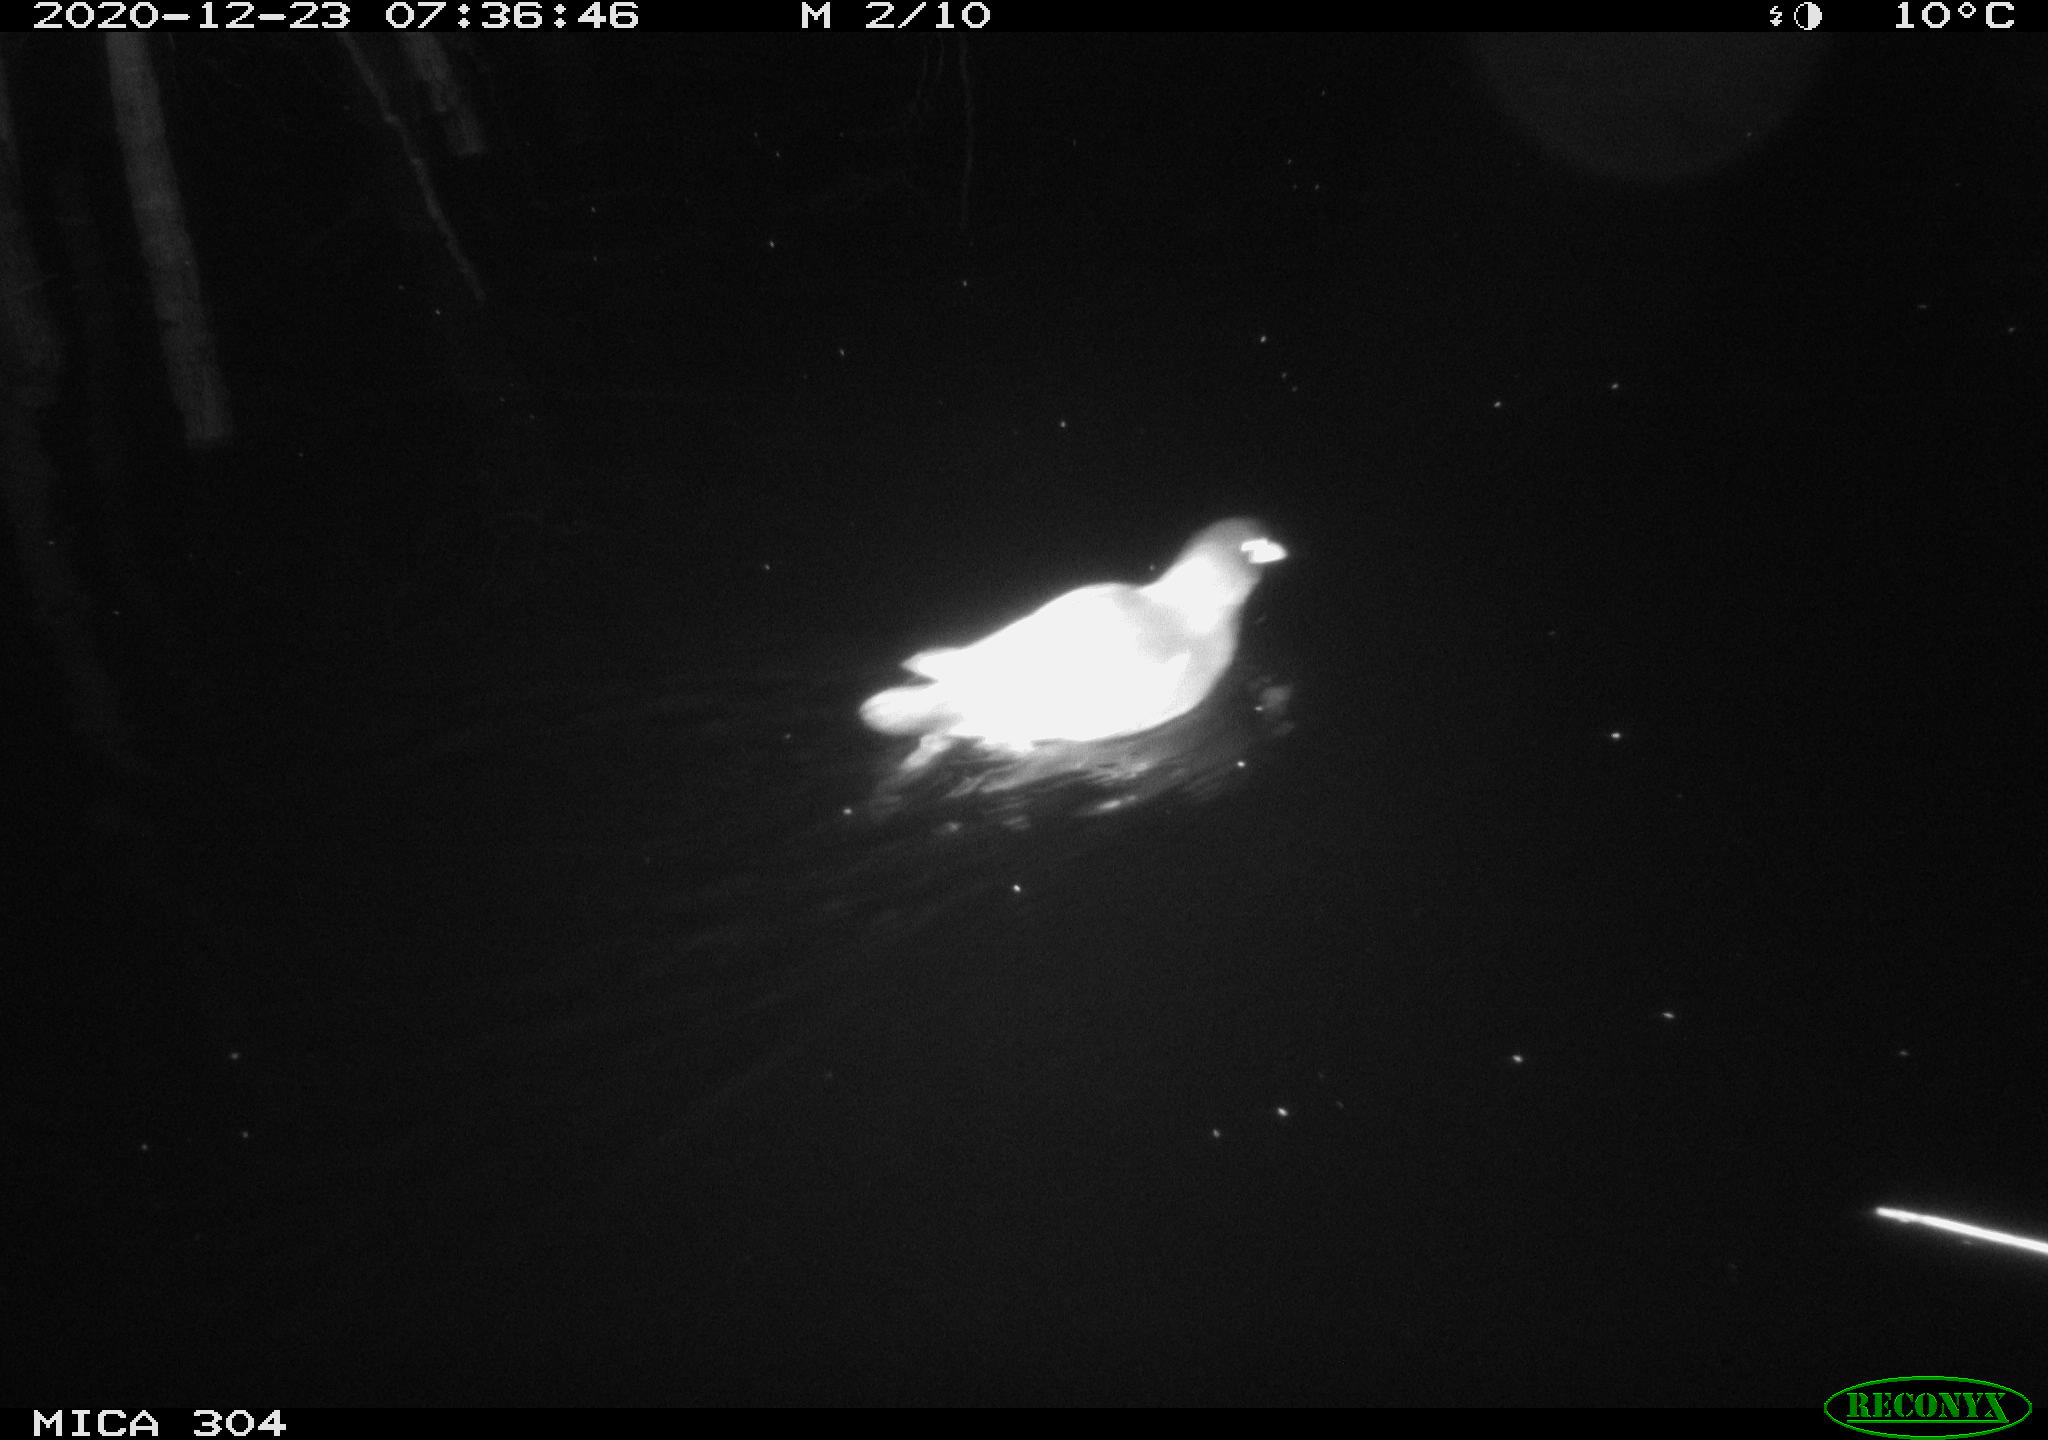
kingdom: Animalia
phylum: Chordata
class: Aves
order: Gruiformes
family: Rallidae
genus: Gallinula
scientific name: Gallinula chloropus
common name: Common moorhen
